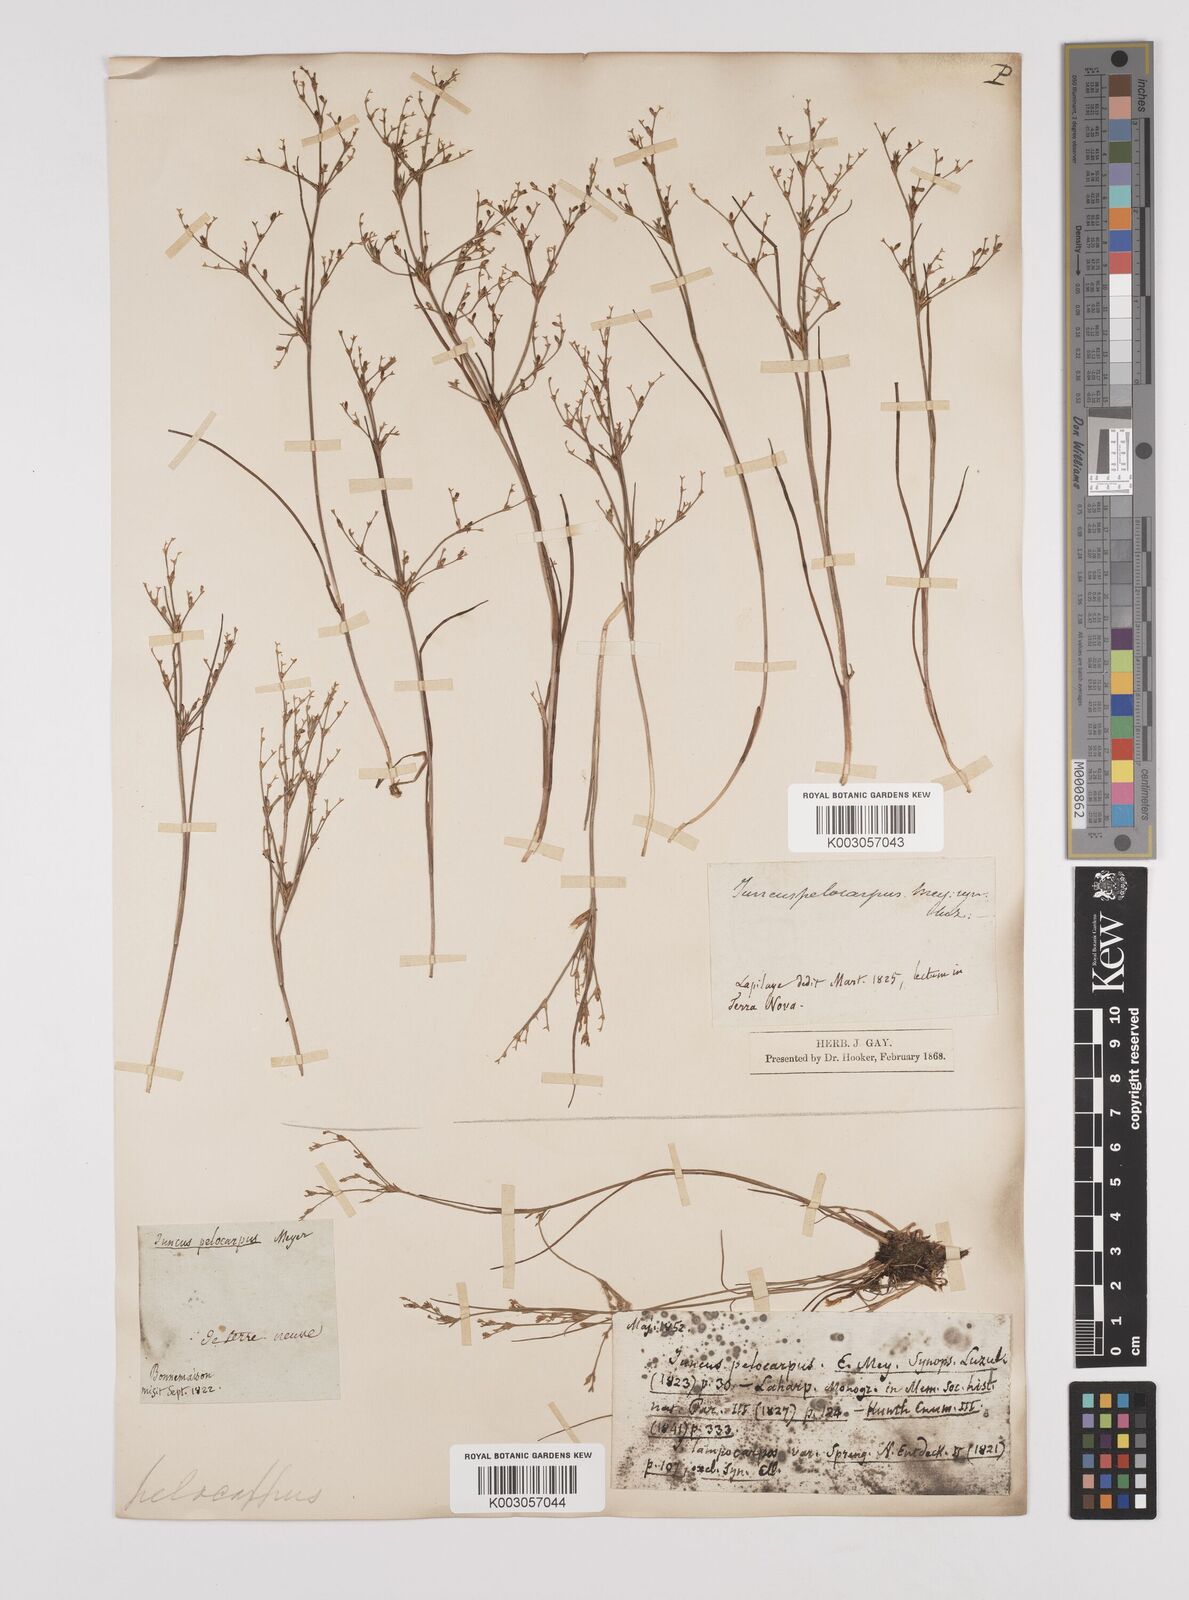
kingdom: Plantae
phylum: Tracheophyta
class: Liliopsida
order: Poales
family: Juncaceae
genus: Juncus
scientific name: Juncus pelocarpus
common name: Brown-fruited rush
